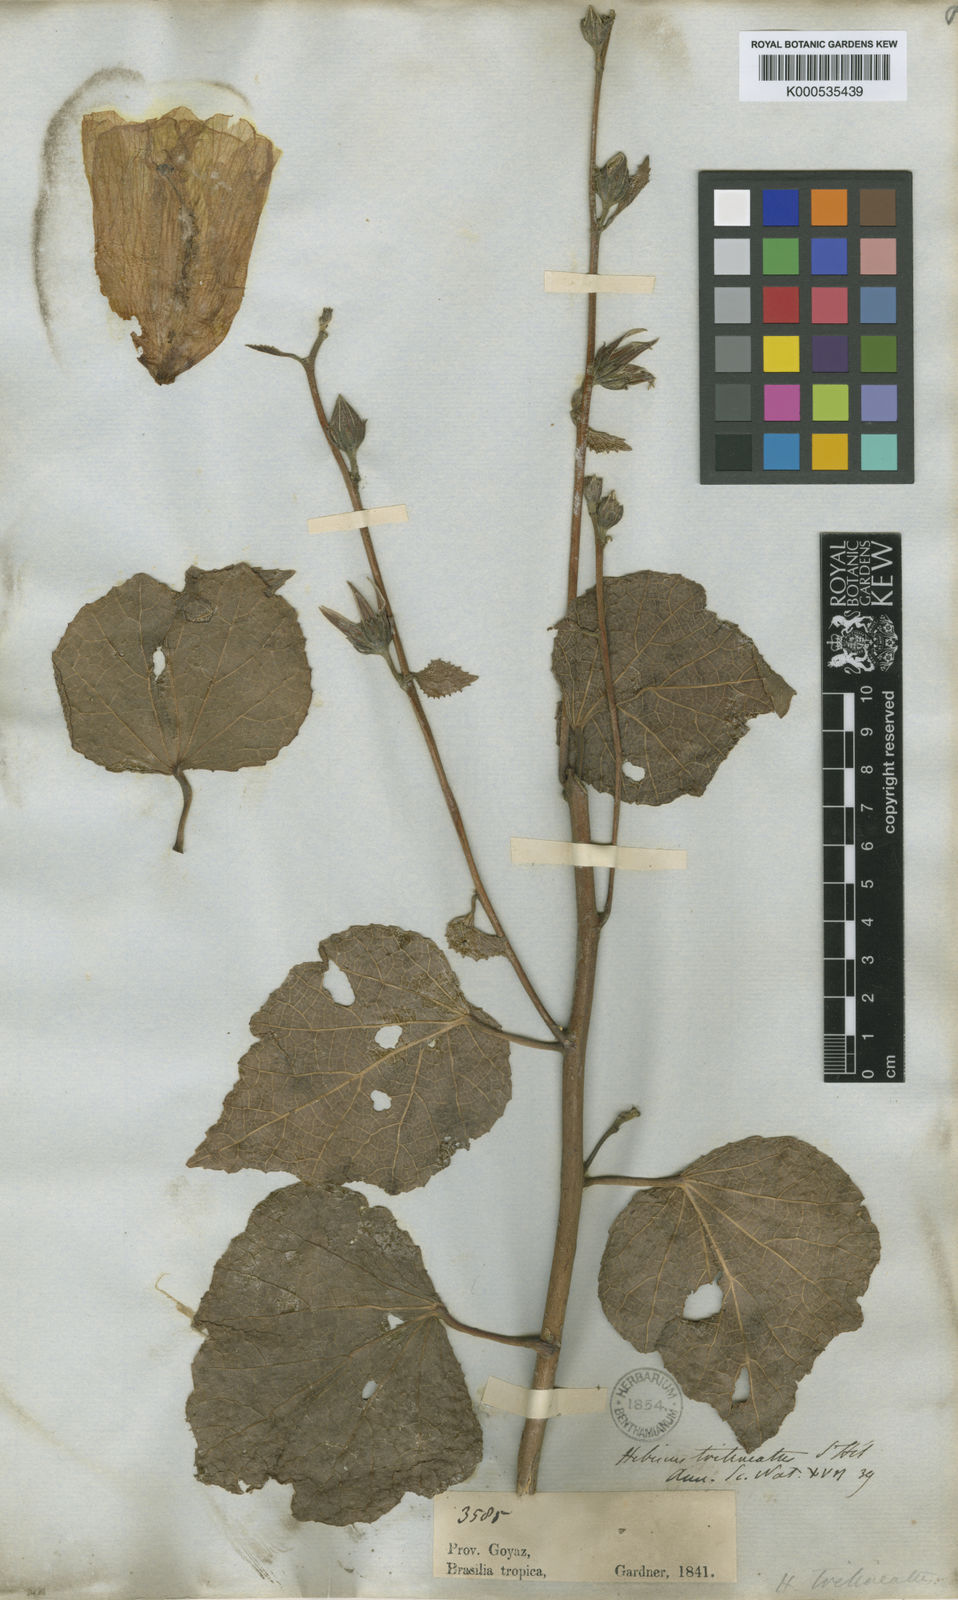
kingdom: Plantae
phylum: Tracheophyta
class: Magnoliopsida
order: Malvales
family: Malvaceae
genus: Hibiscus
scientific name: Hibiscus trilineatus
